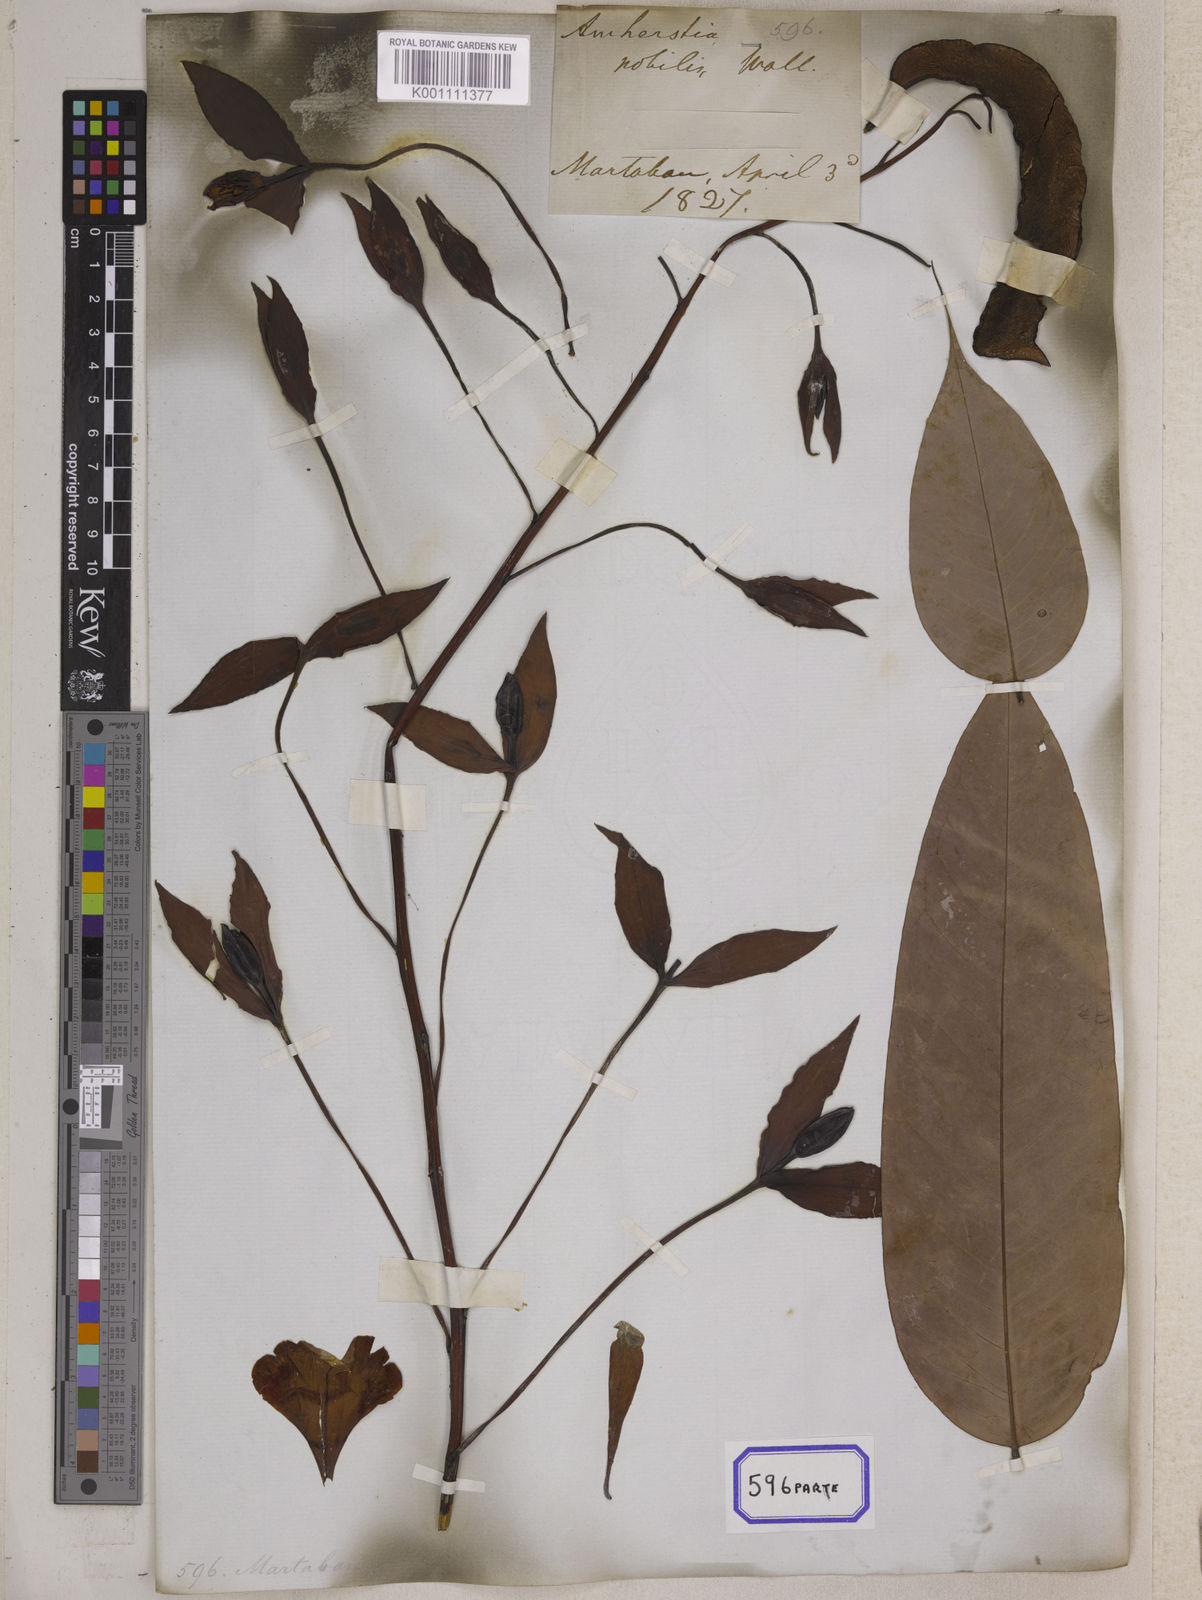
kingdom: Plantae
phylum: Tracheophyta
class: Magnoliopsida
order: Fabales
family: Fabaceae
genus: Amherstia
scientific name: Amherstia nobilis
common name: Pride-of-burma
